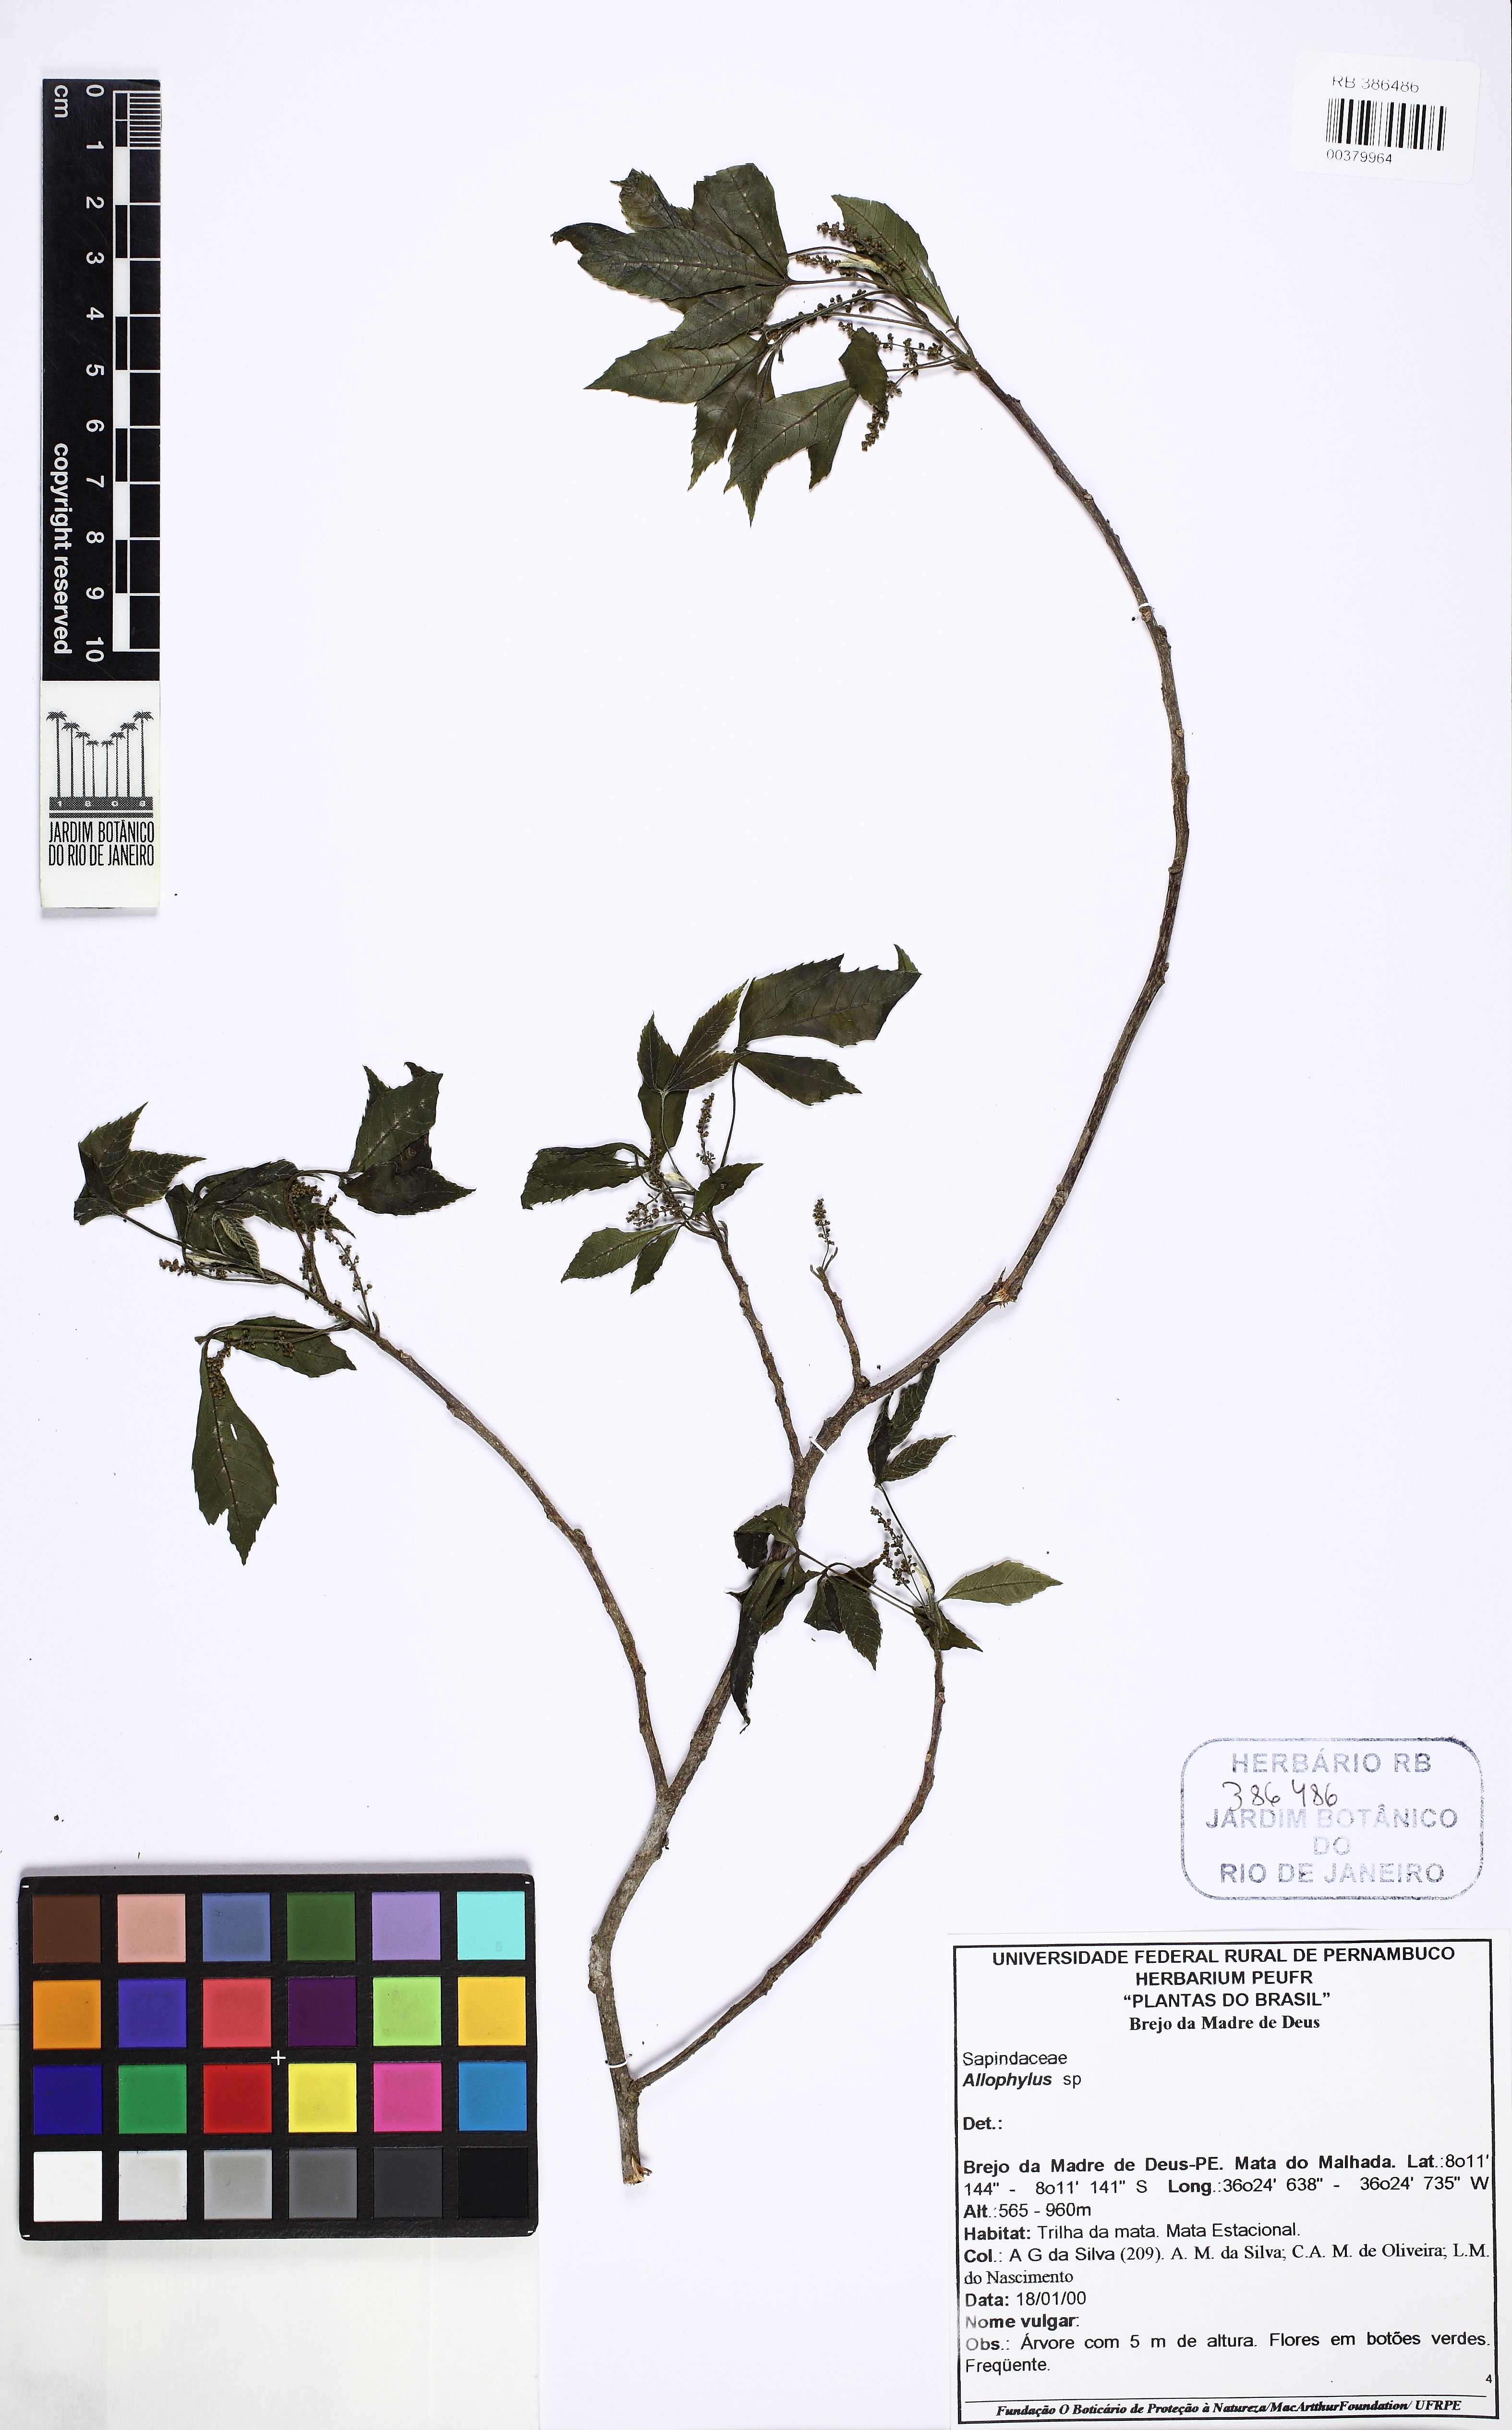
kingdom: Plantae
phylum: Tracheophyta
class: Magnoliopsida
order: Sapindales
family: Sapindaceae
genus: Allophylus
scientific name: Allophylus edulis
